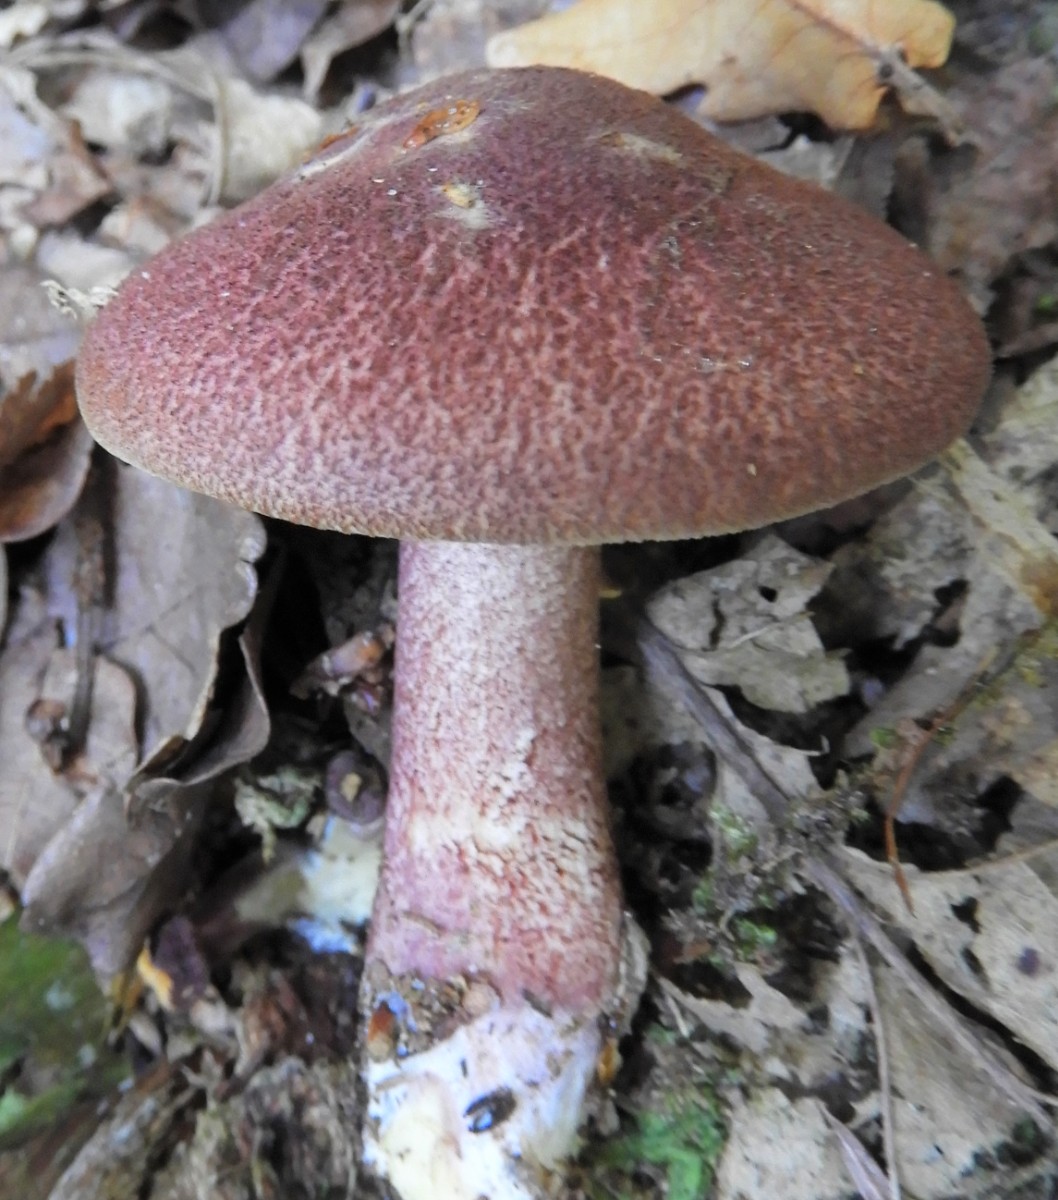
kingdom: Fungi
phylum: Basidiomycota
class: Agaricomycetes
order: Agaricales
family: Tricholomataceae
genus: Tricholomopsis
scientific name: Tricholomopsis rutilans
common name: purpur-væbnerhat
